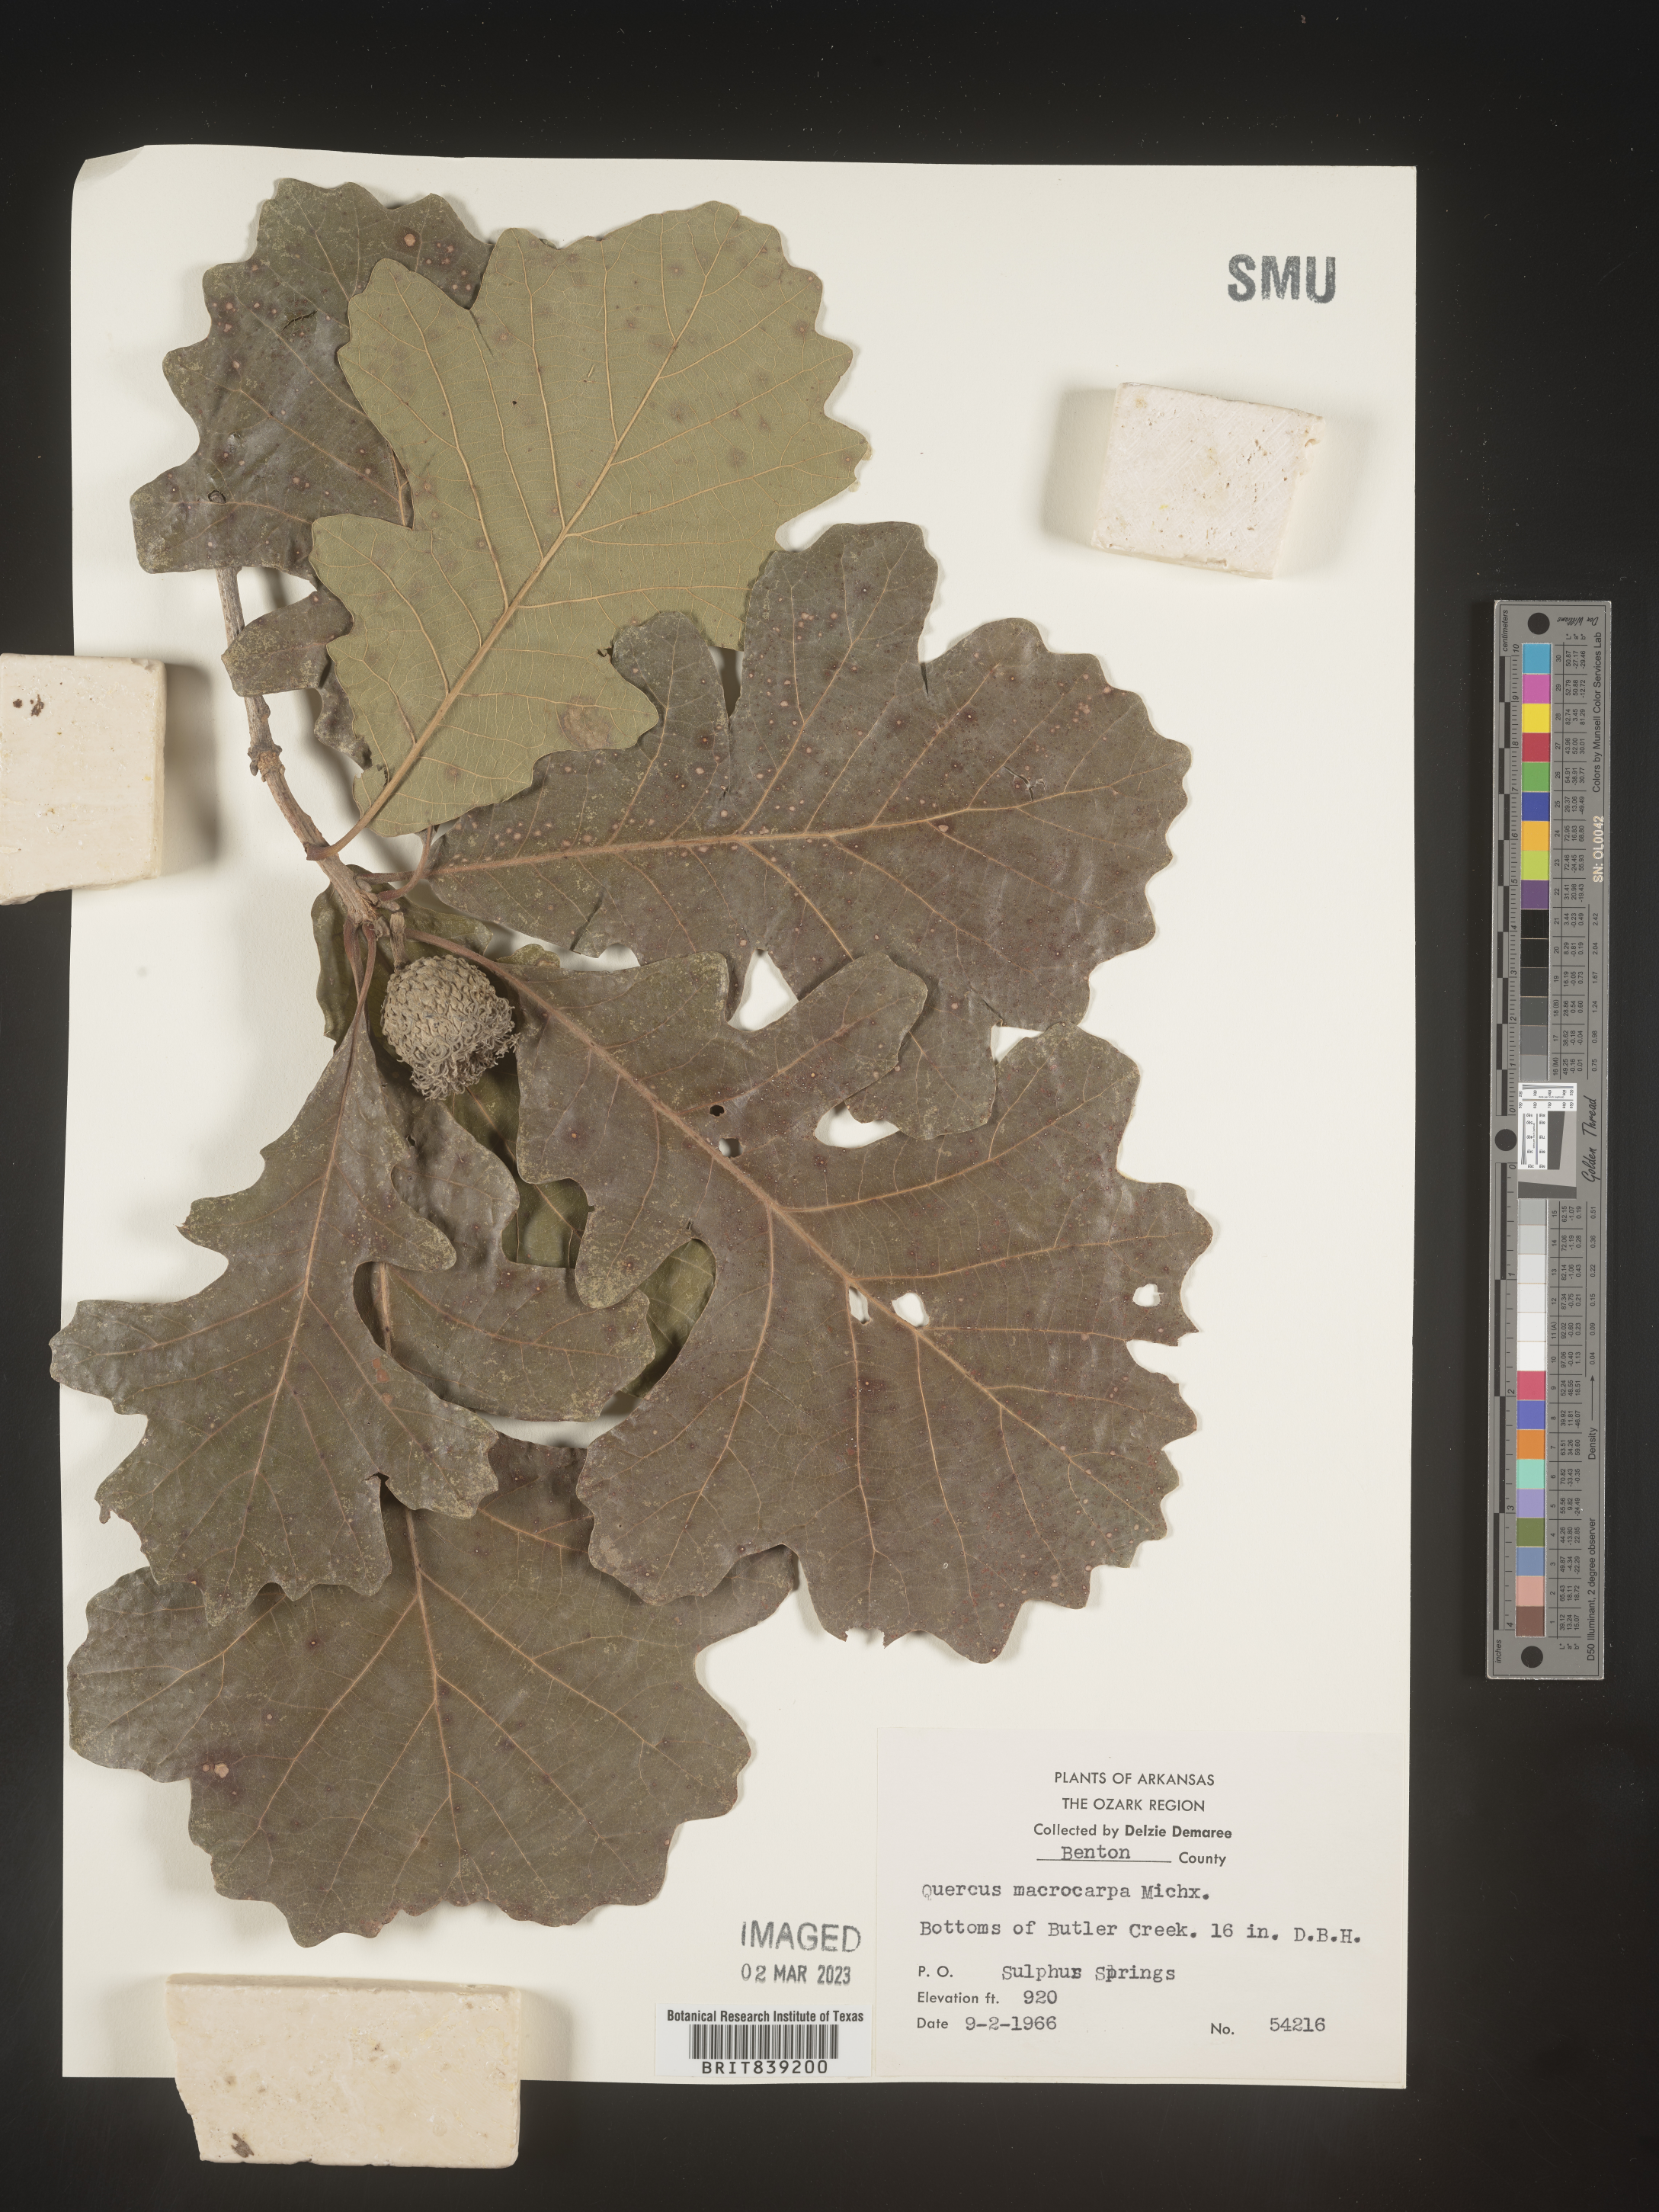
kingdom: Plantae
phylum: Tracheophyta
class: Magnoliopsida
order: Fagales
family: Fagaceae
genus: Quercus
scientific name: Quercus macrocarpa
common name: Bur oak
